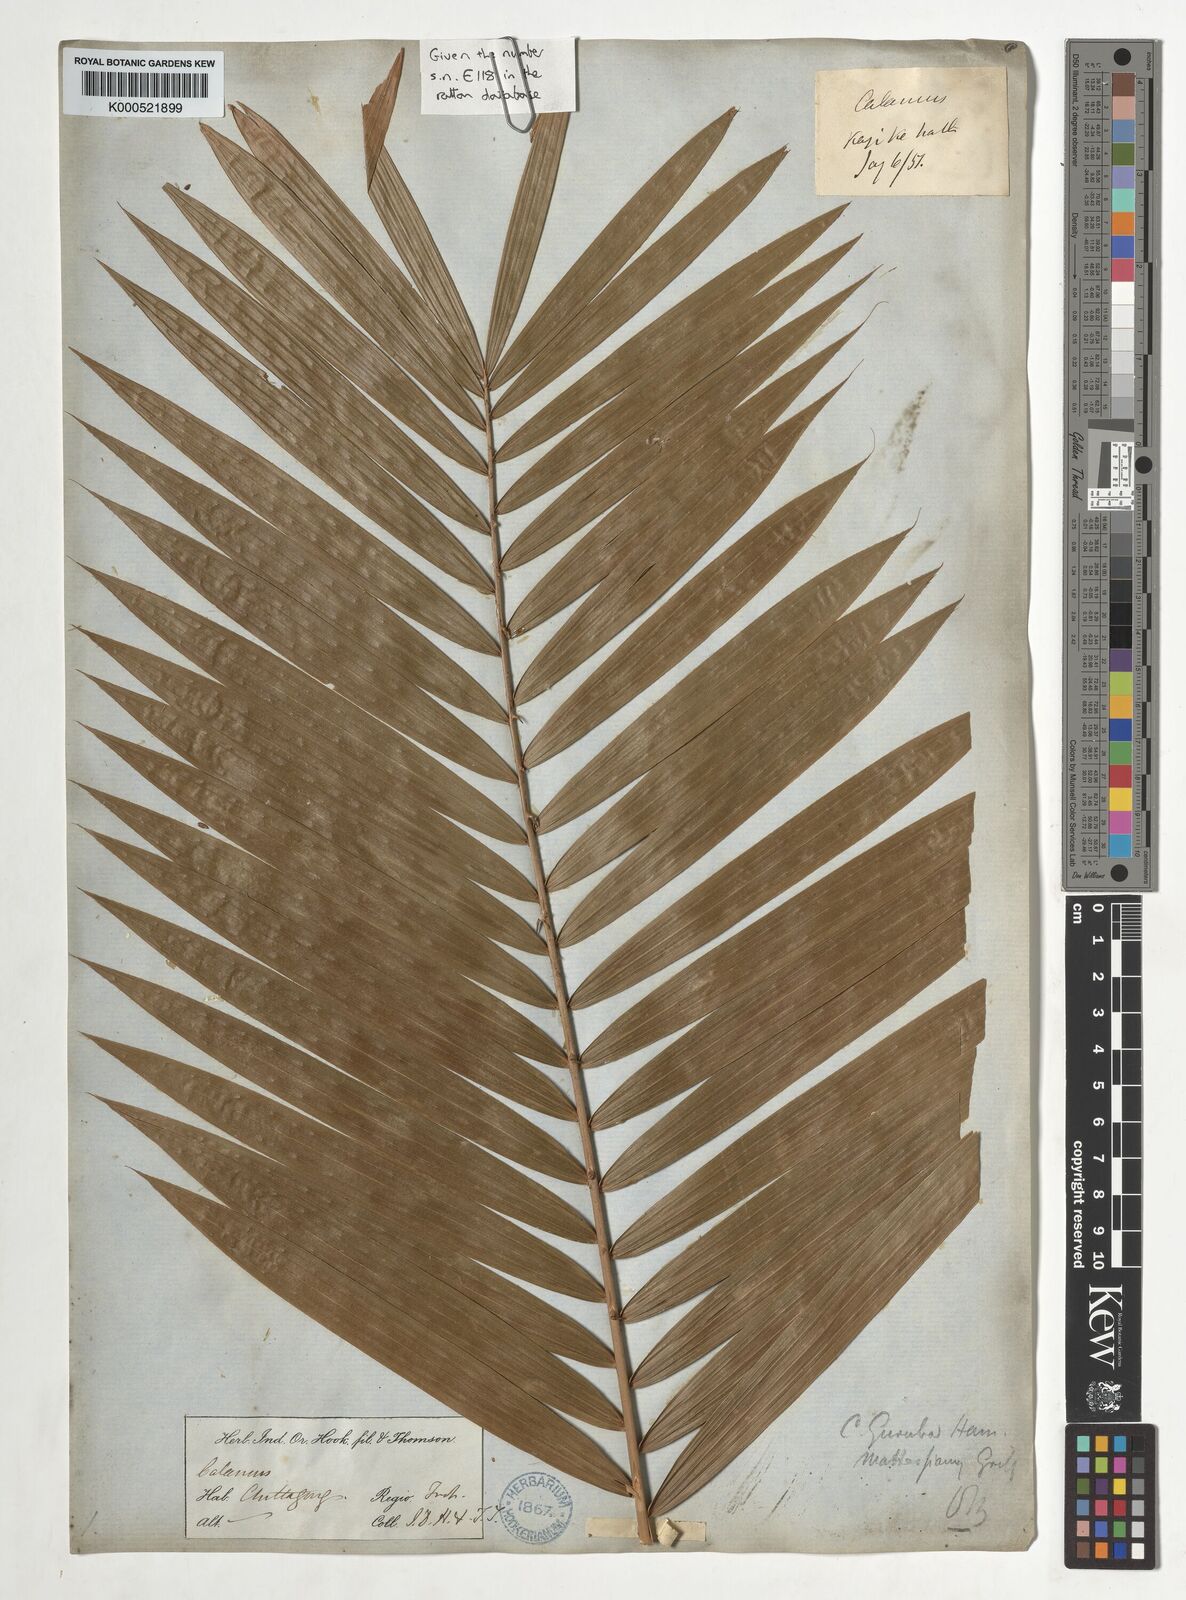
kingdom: Plantae
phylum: Tracheophyta
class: Liliopsida
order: Arecales
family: Arecaceae
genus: Calamus
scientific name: Calamus
